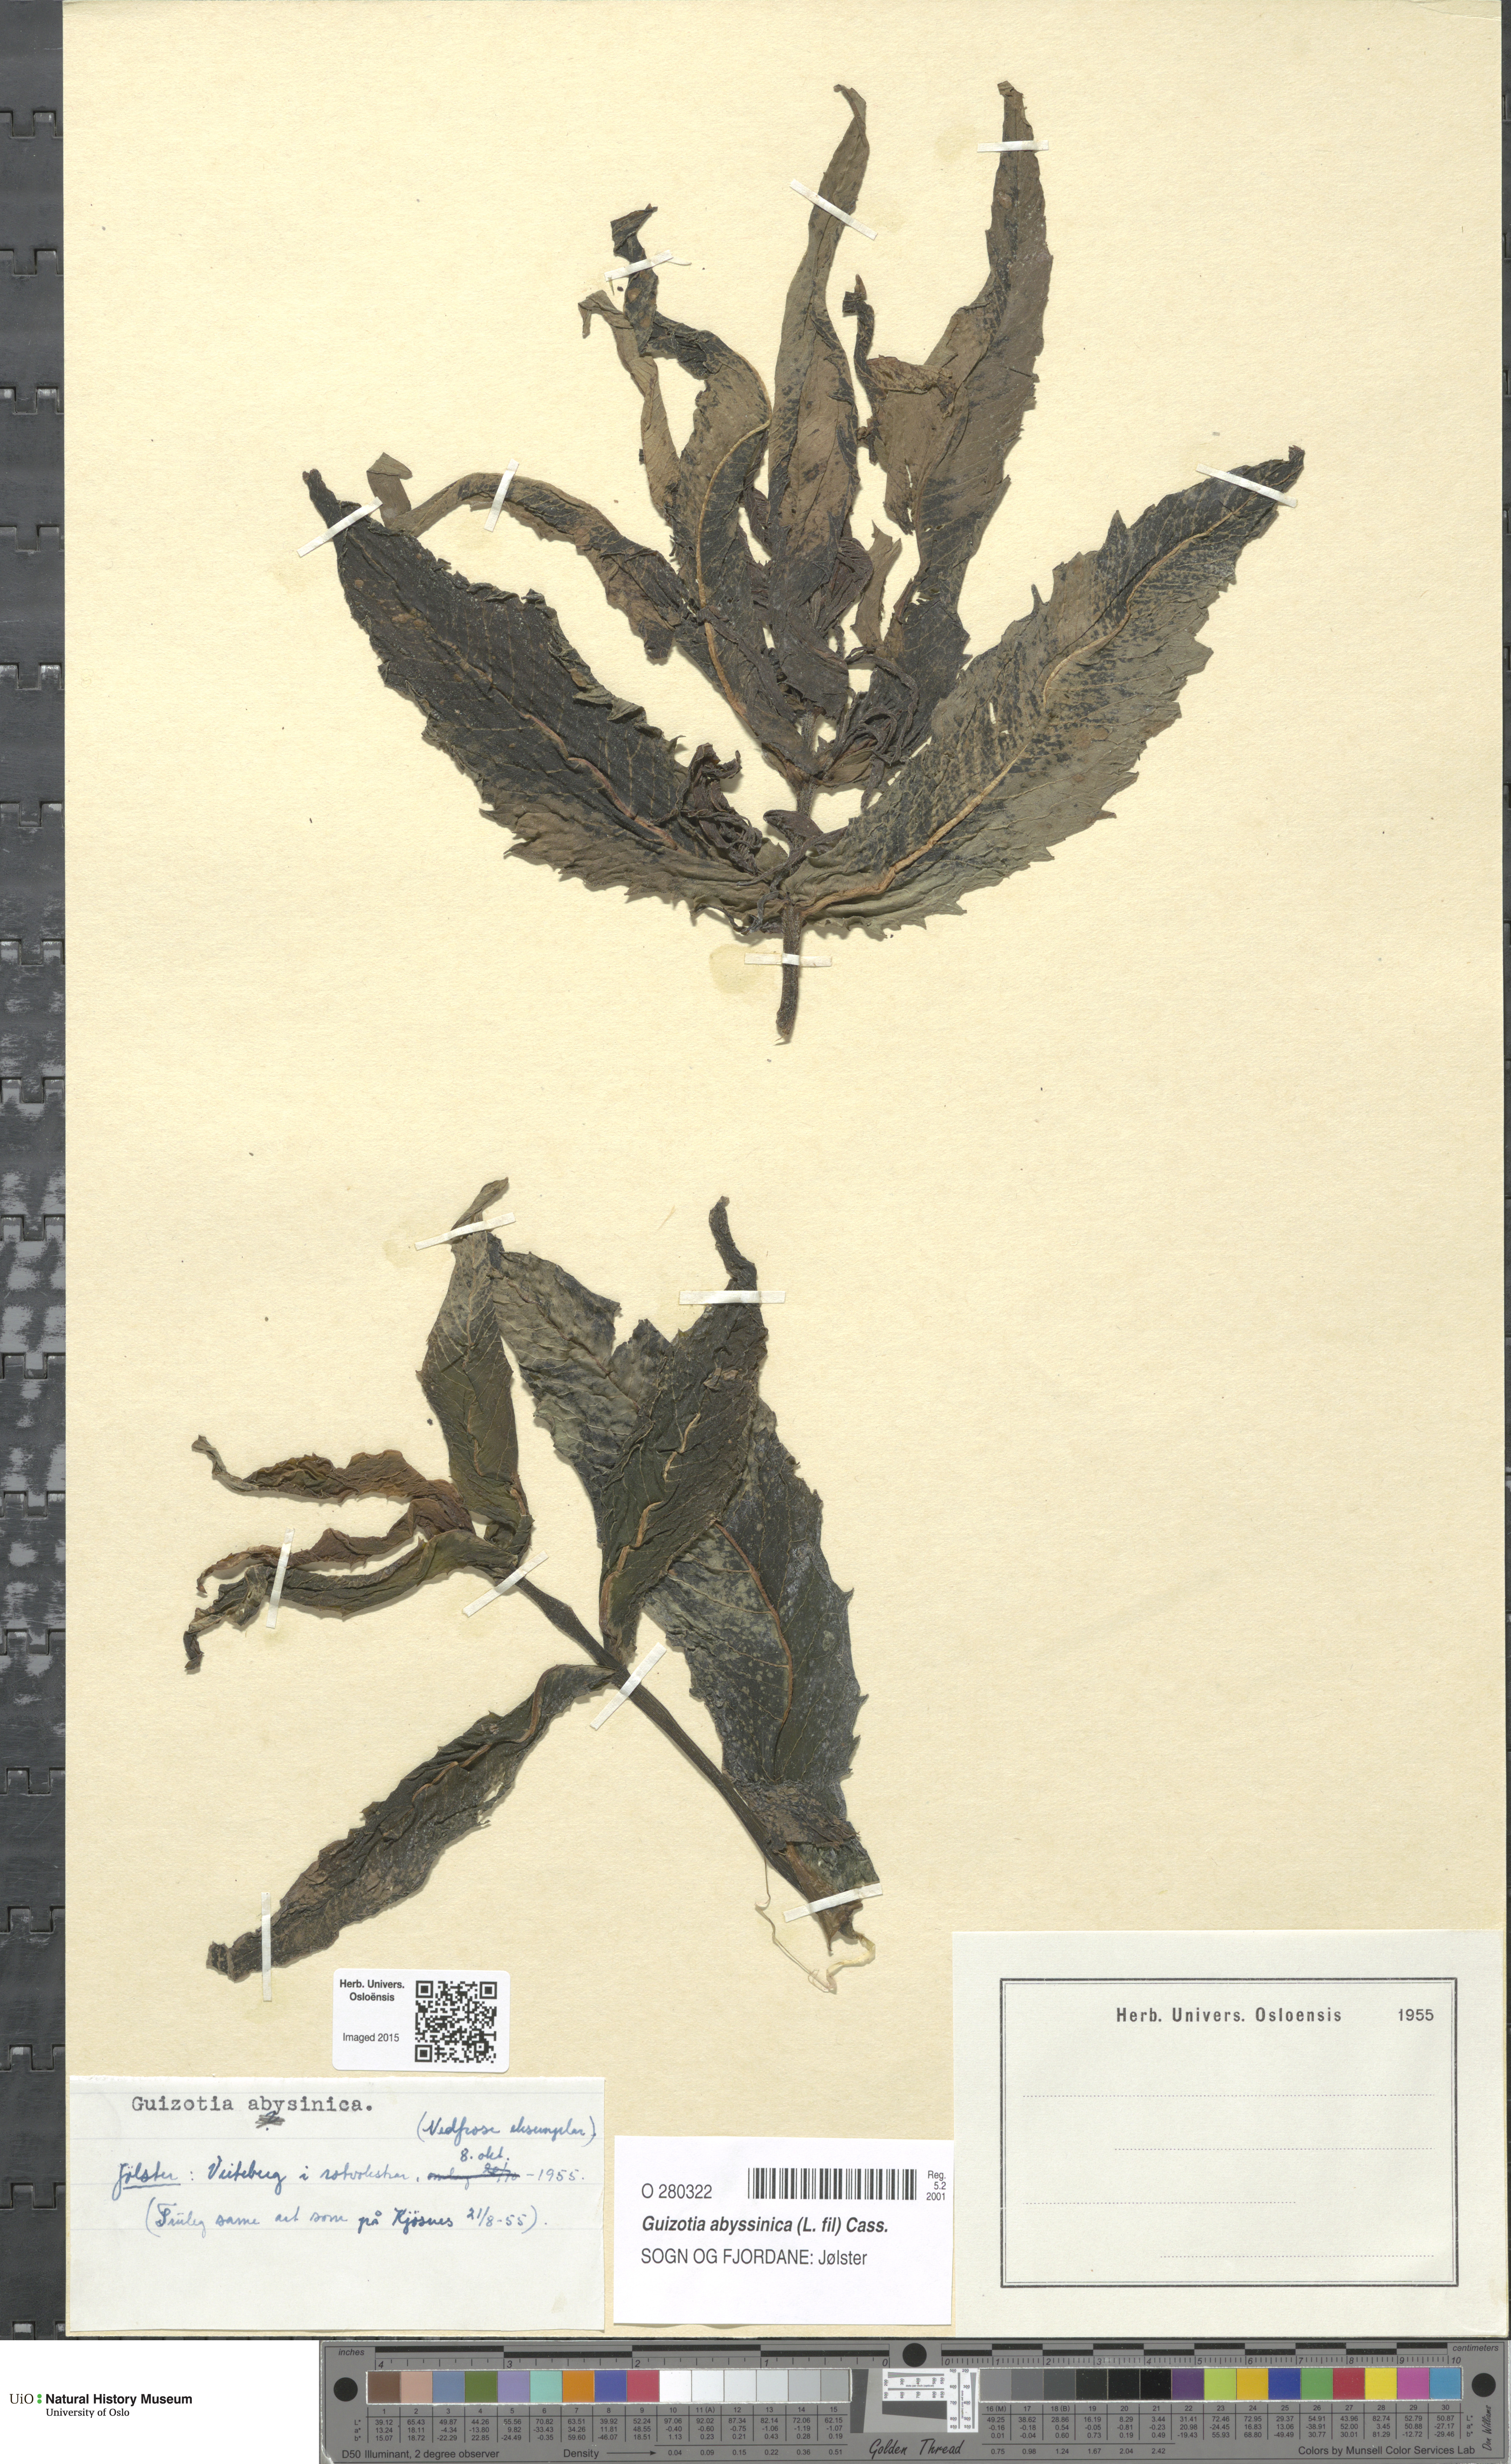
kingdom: Plantae
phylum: Tracheophyta
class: Magnoliopsida
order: Asterales
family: Asteraceae
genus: Guizotia
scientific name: Guizotia abyssinica
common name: Niger
